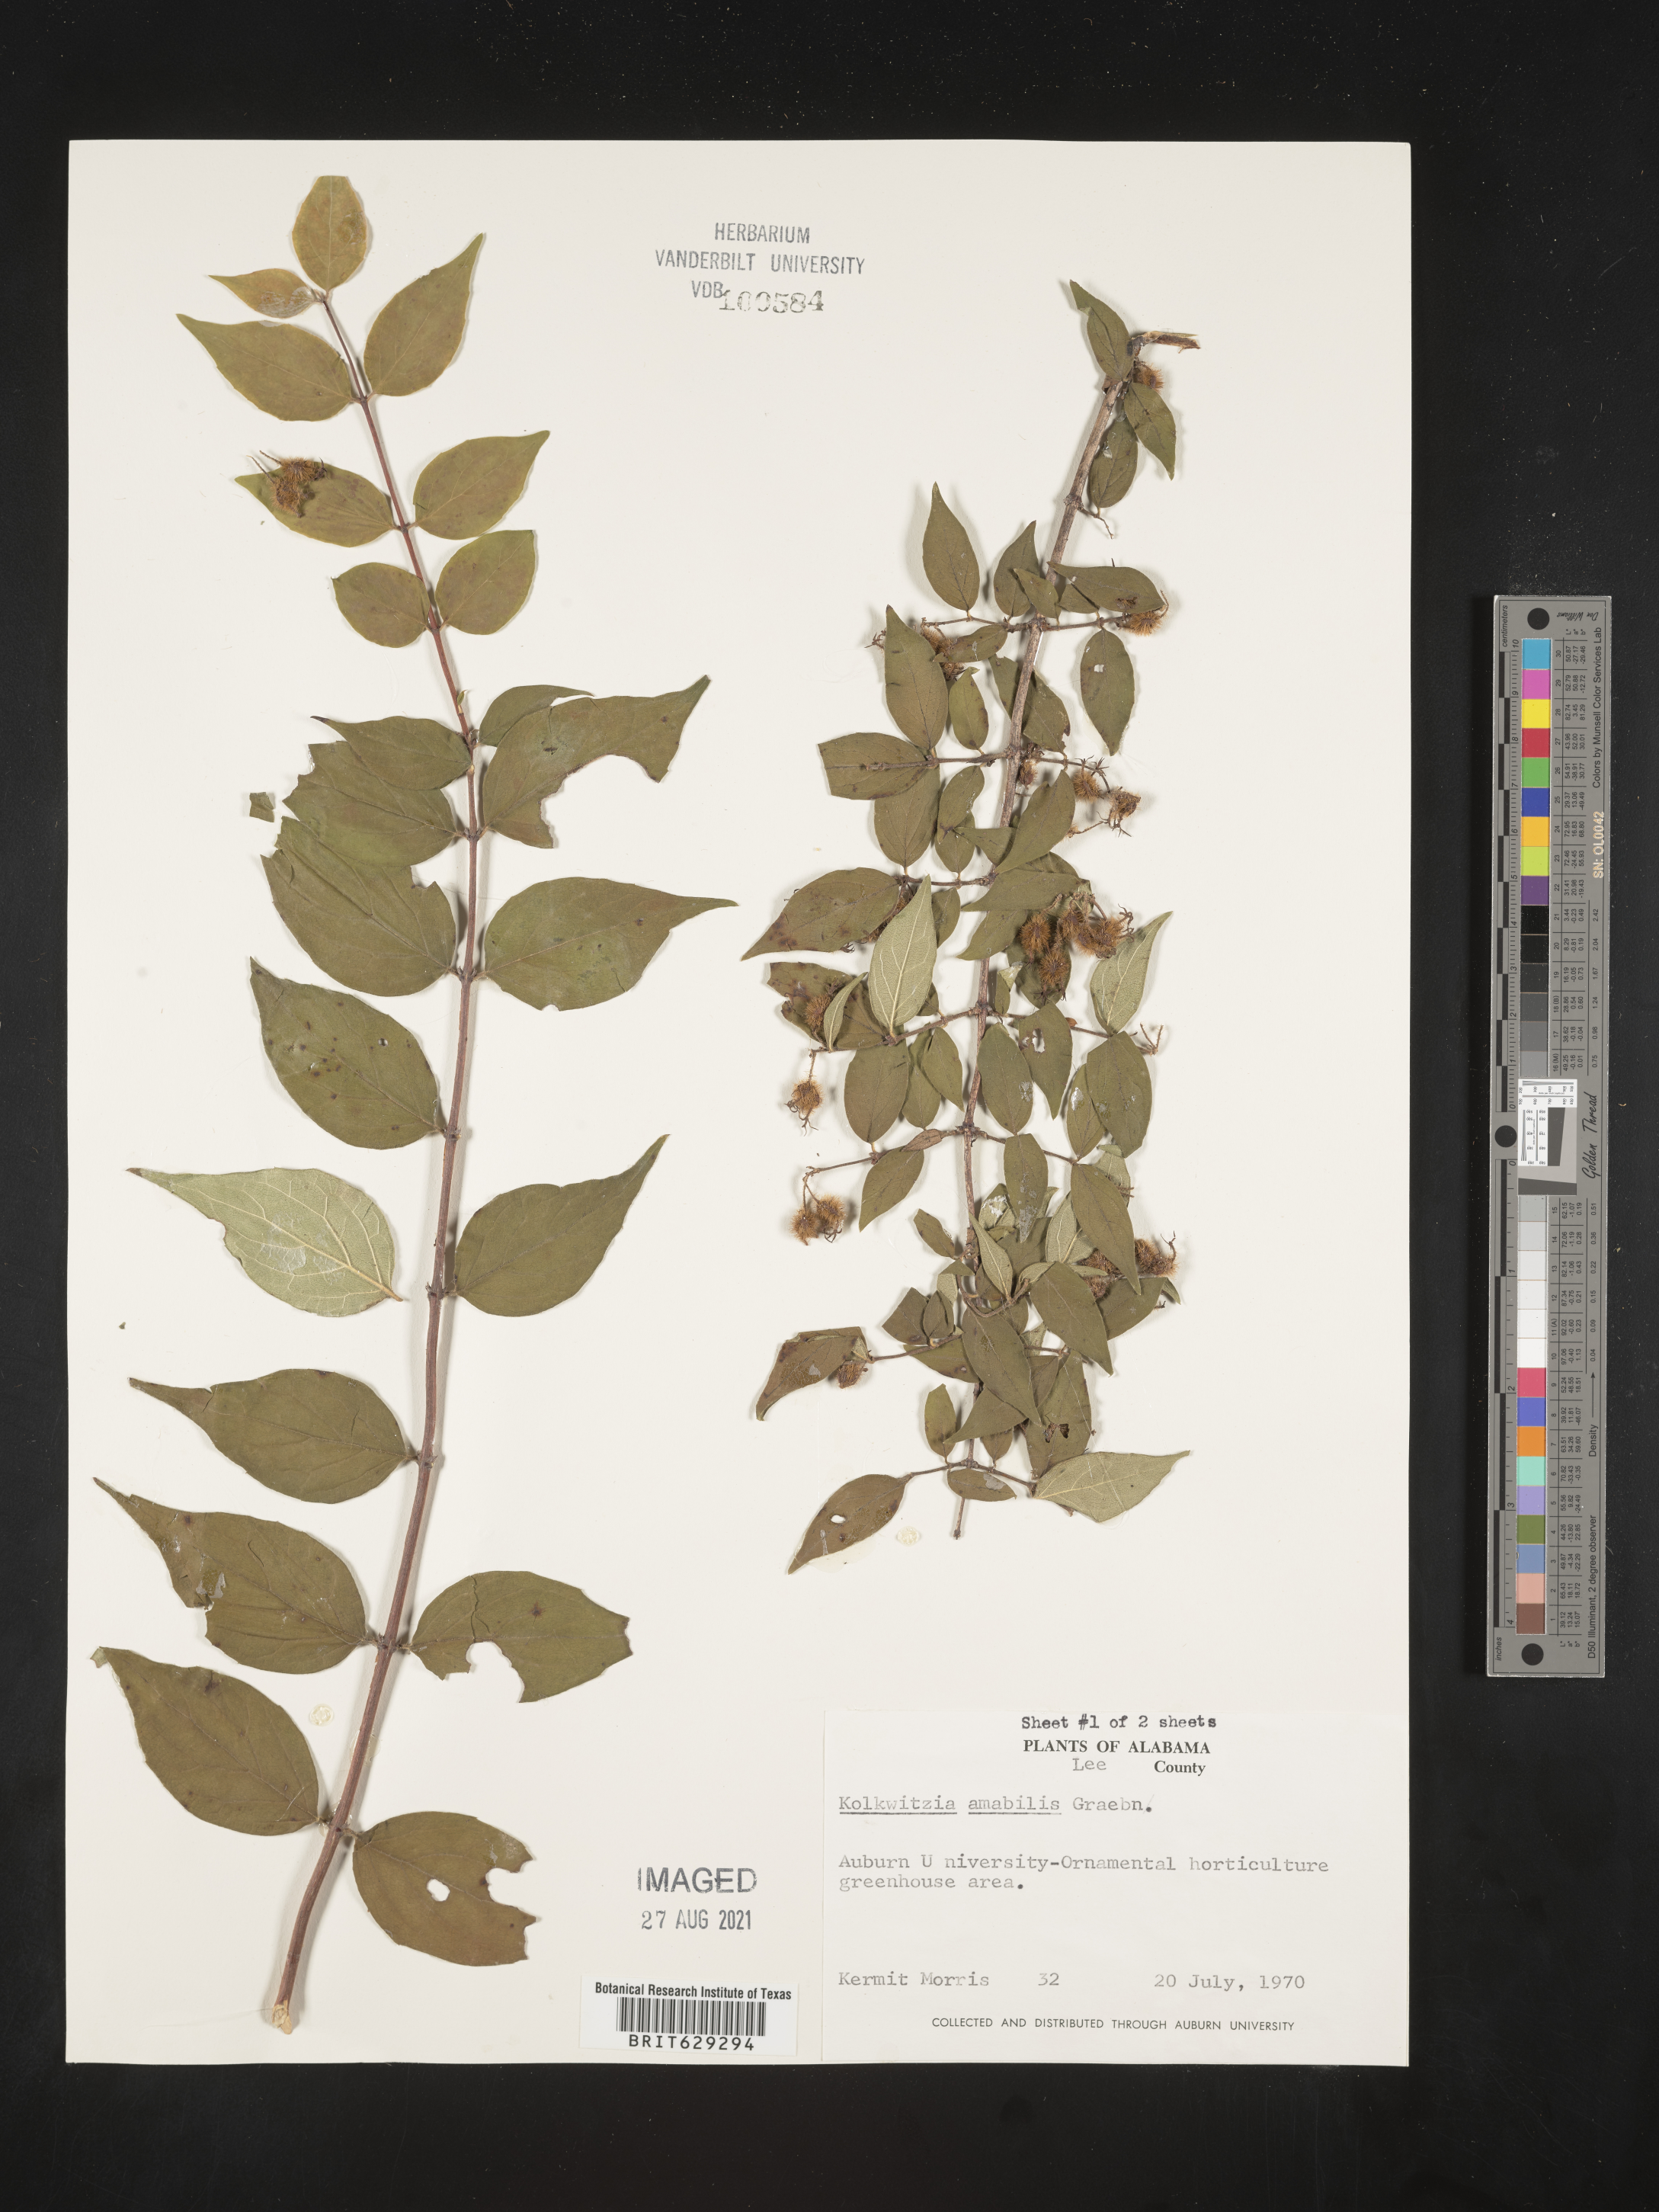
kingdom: Plantae
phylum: Tracheophyta
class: Magnoliopsida
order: Dipsacales
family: Caprifoliaceae
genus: Kolkwitzia
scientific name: Kolkwitzia amabilis
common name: Beautybush
